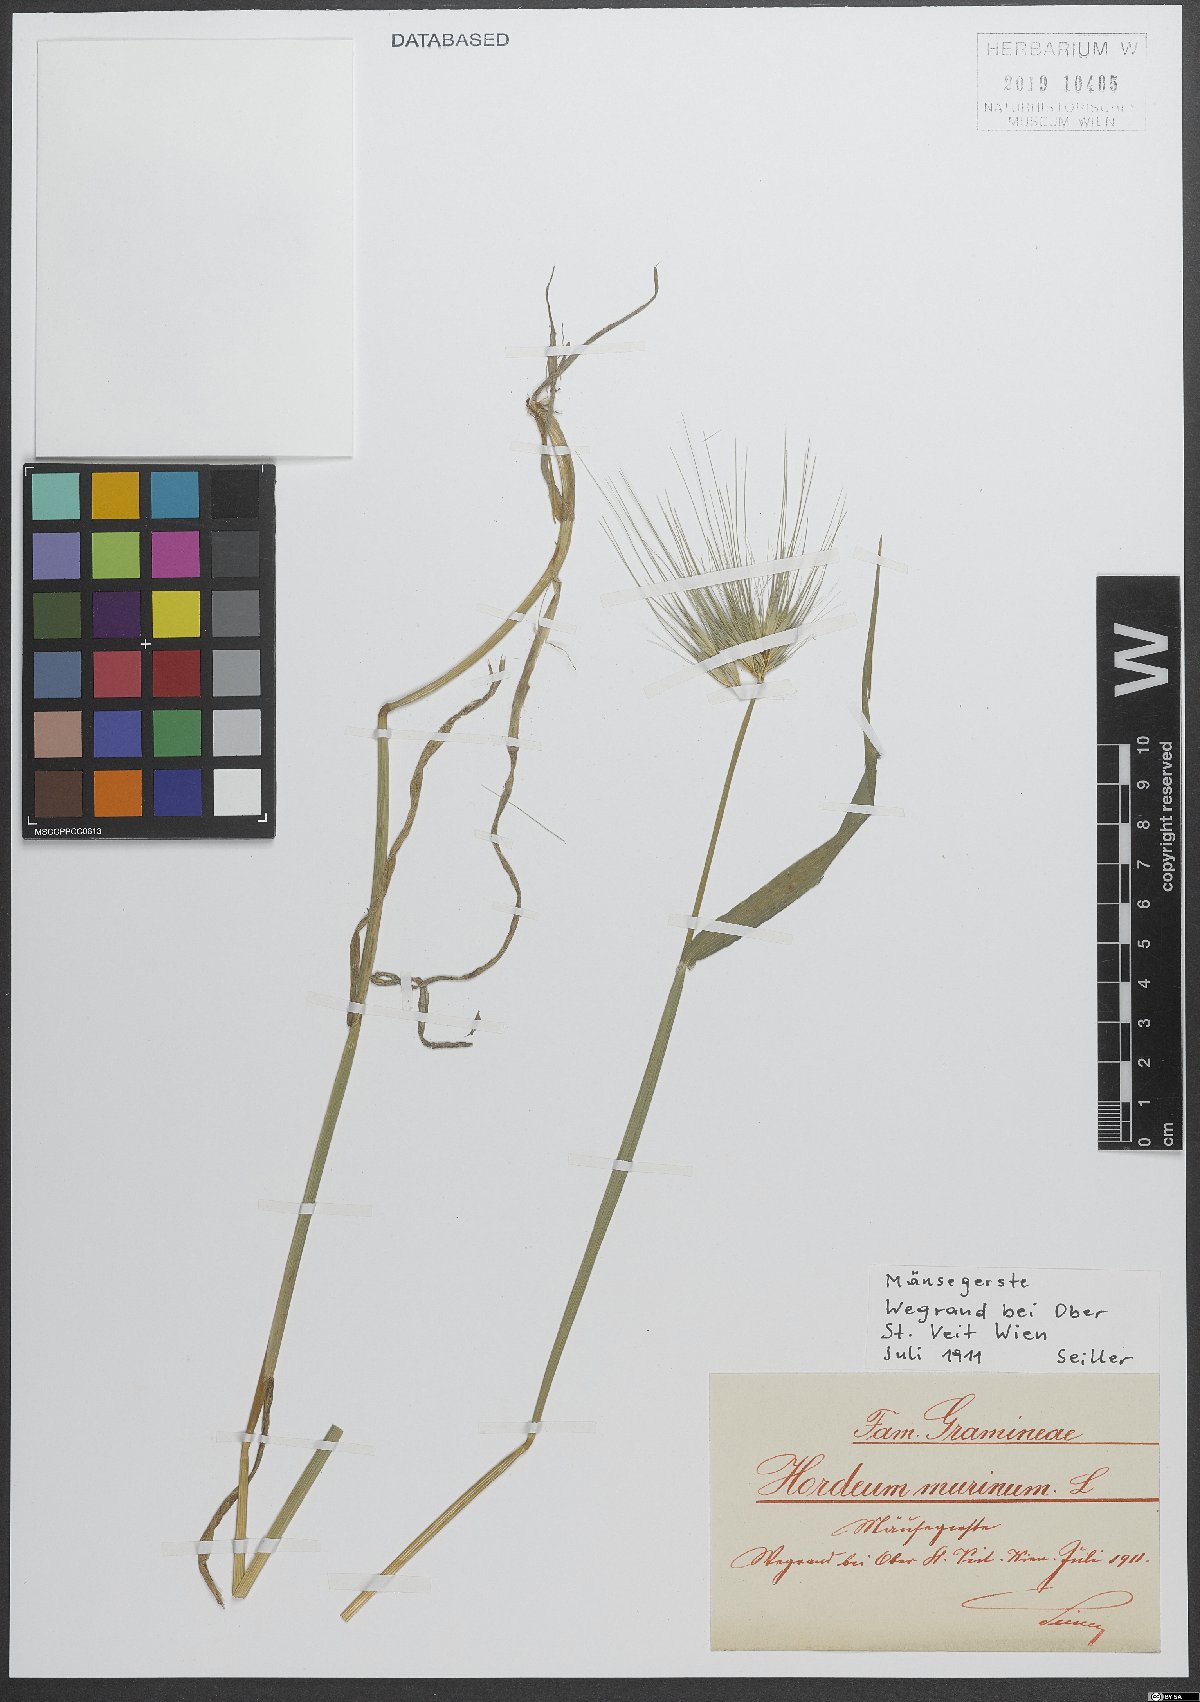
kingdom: Plantae
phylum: Tracheophyta
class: Liliopsida
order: Poales
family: Poaceae
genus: Hordeum
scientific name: Hordeum murinum
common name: Wall barley
